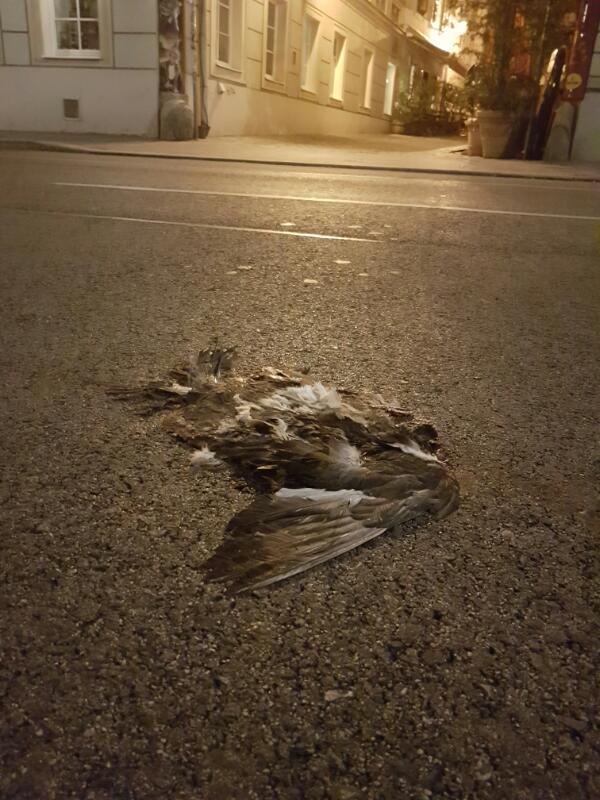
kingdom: Animalia
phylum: Chordata
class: Aves
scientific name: Aves
